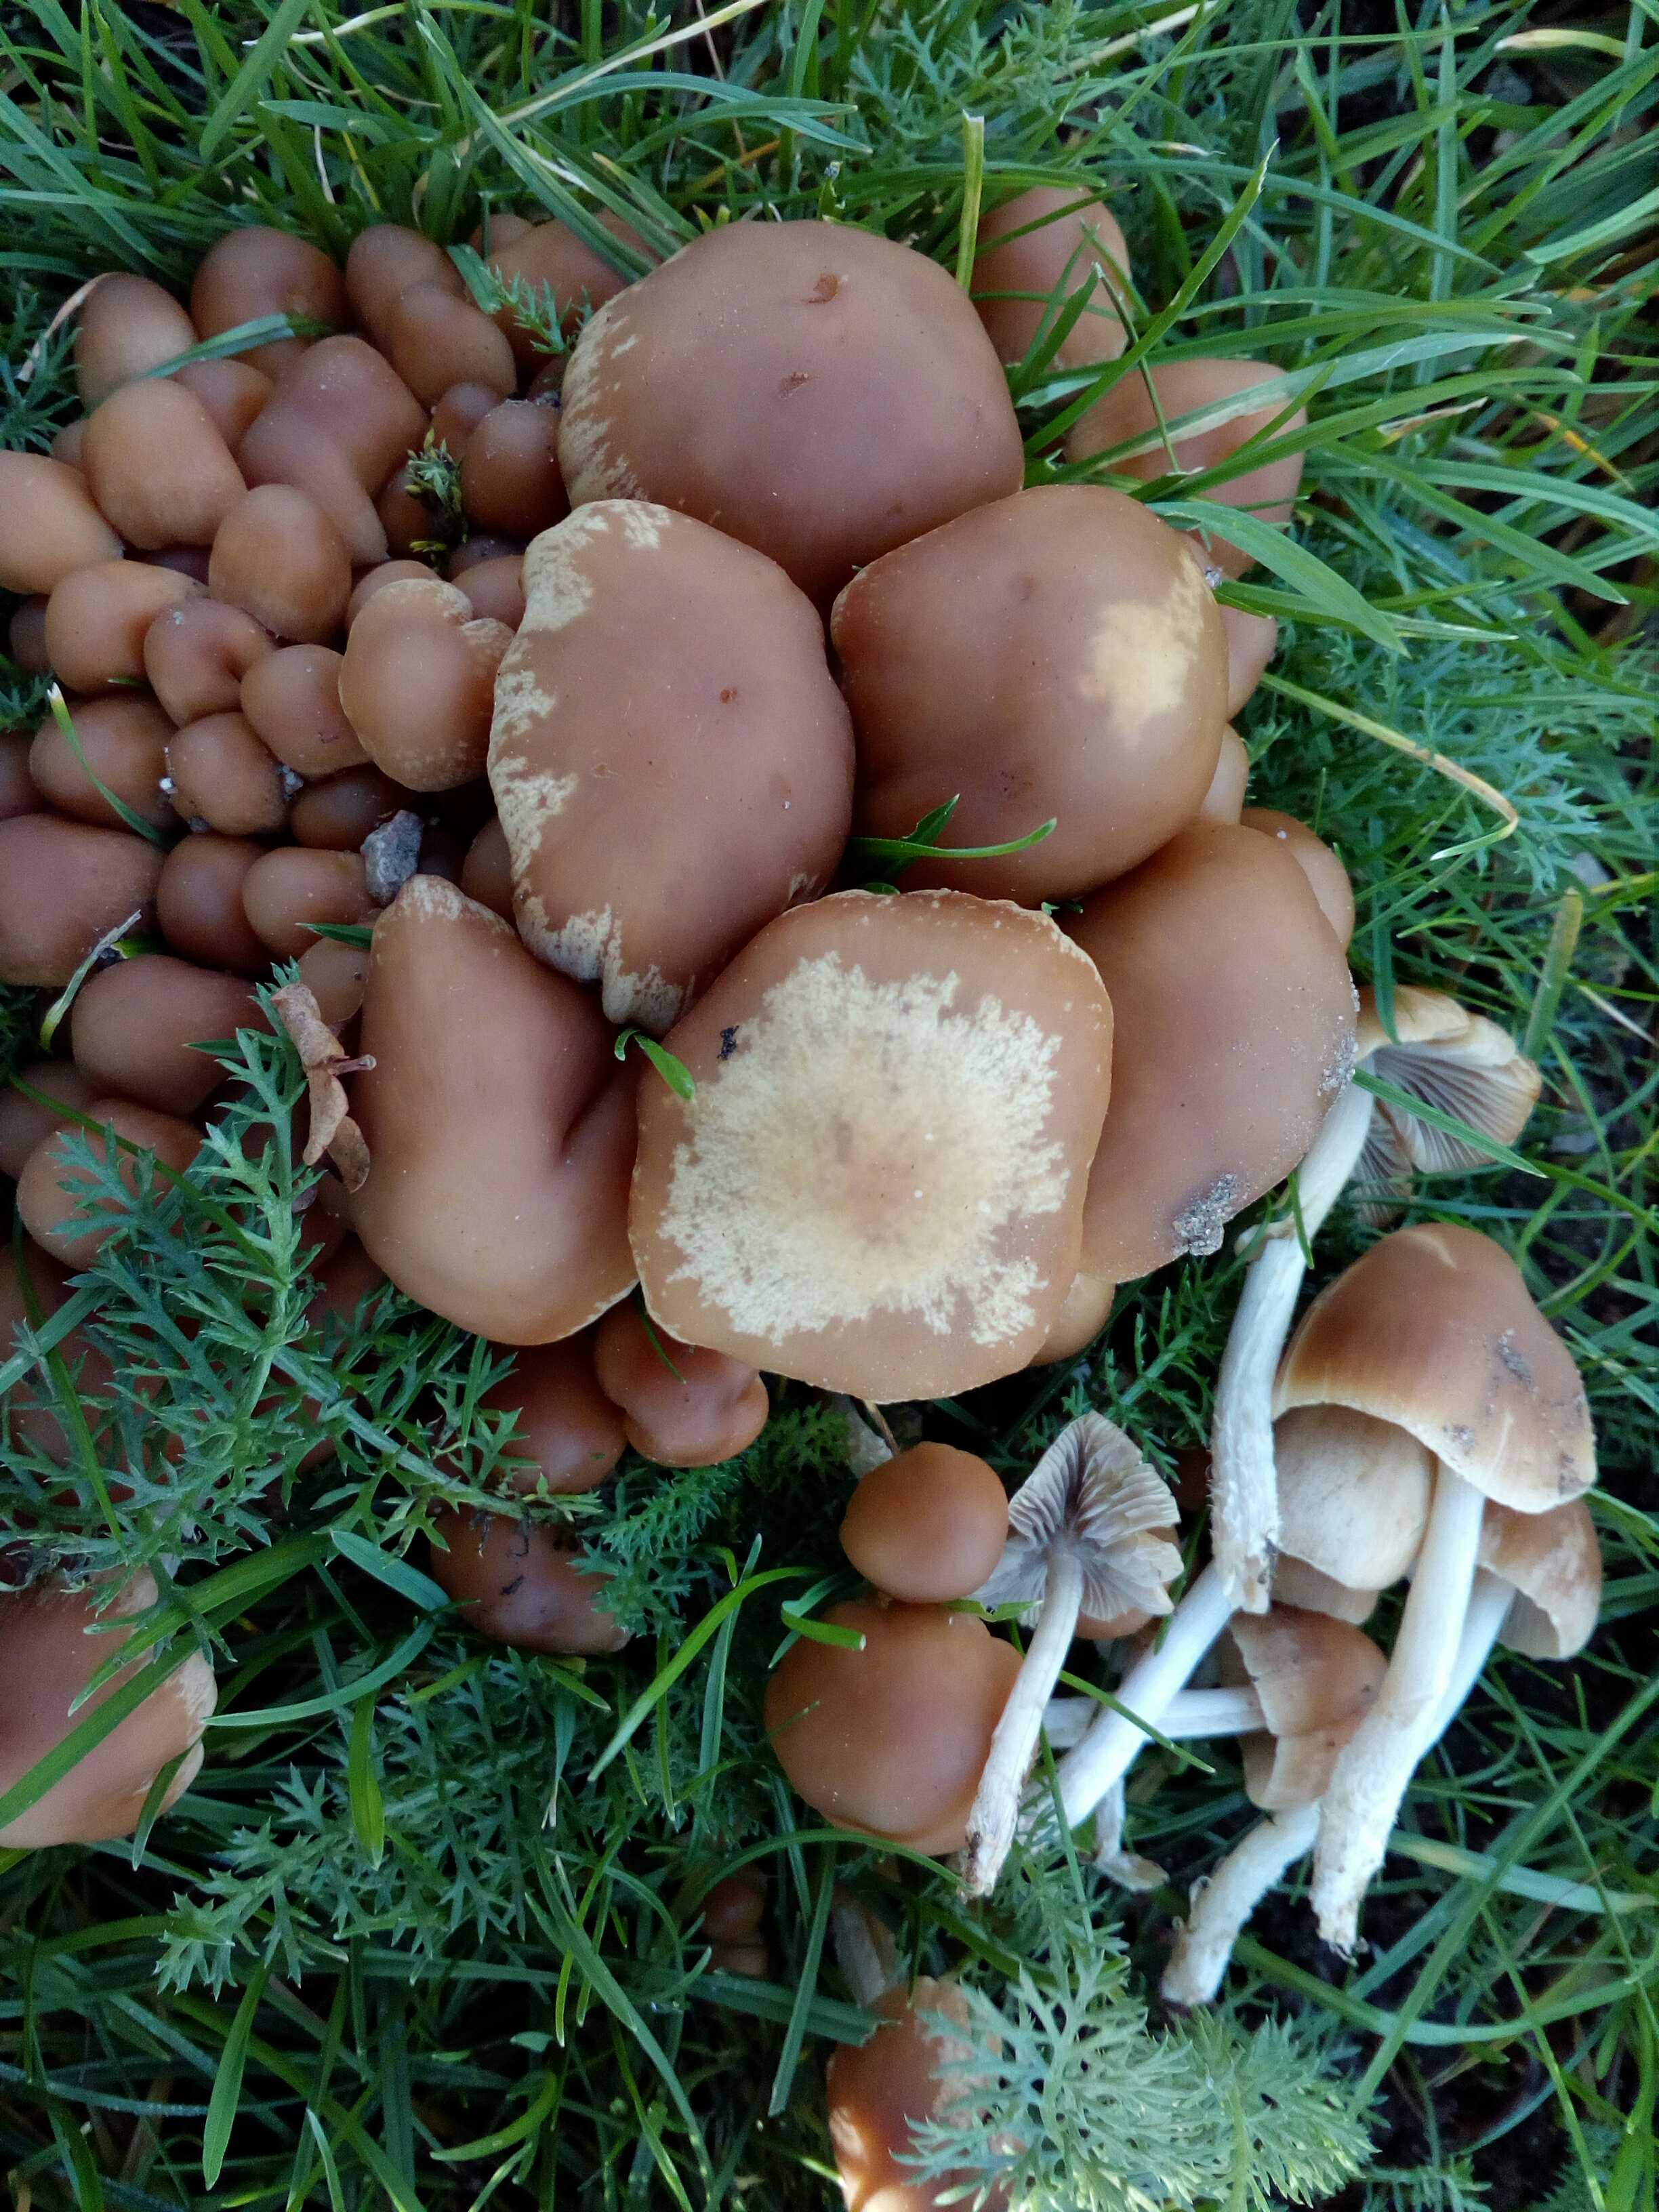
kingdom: Fungi
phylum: Basidiomycota
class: Agaricomycetes
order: Agaricales
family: Psathyrellaceae
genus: Britzelmayria
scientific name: Britzelmayria multipedata
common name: knippe-mørkhat
